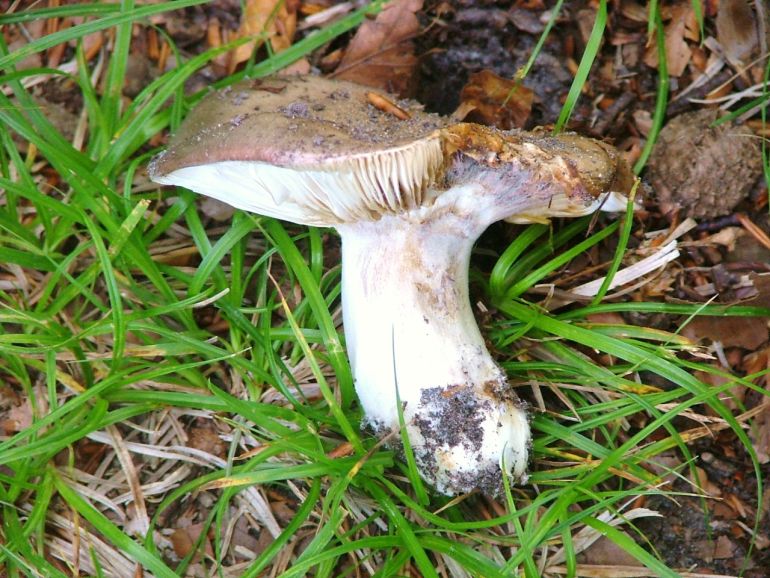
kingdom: Fungi
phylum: Basidiomycota
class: Agaricomycetes
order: Russulales
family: Russulaceae
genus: Russula
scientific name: Russula cyanoxantha
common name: broget skørhat
